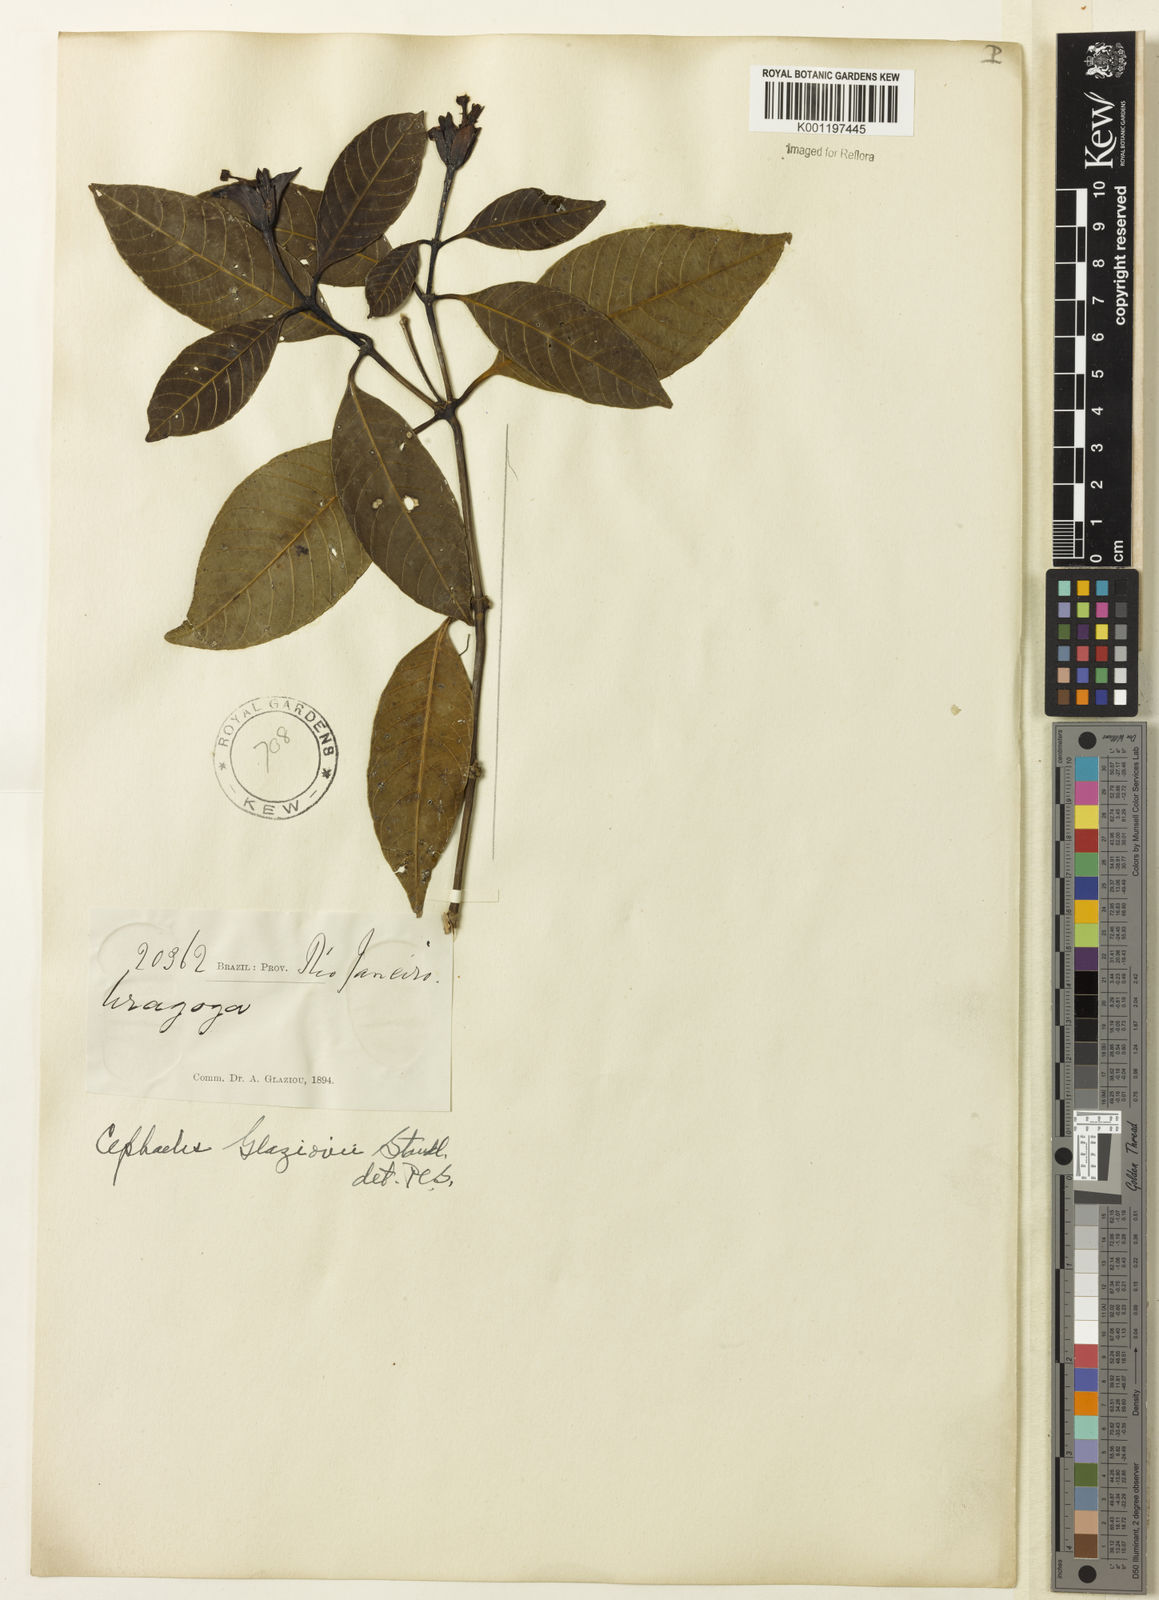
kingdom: Plantae
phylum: Tracheophyta
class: Magnoliopsida
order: Gentianales
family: Rubiaceae
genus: Psychotria
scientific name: Psychotria ararum
